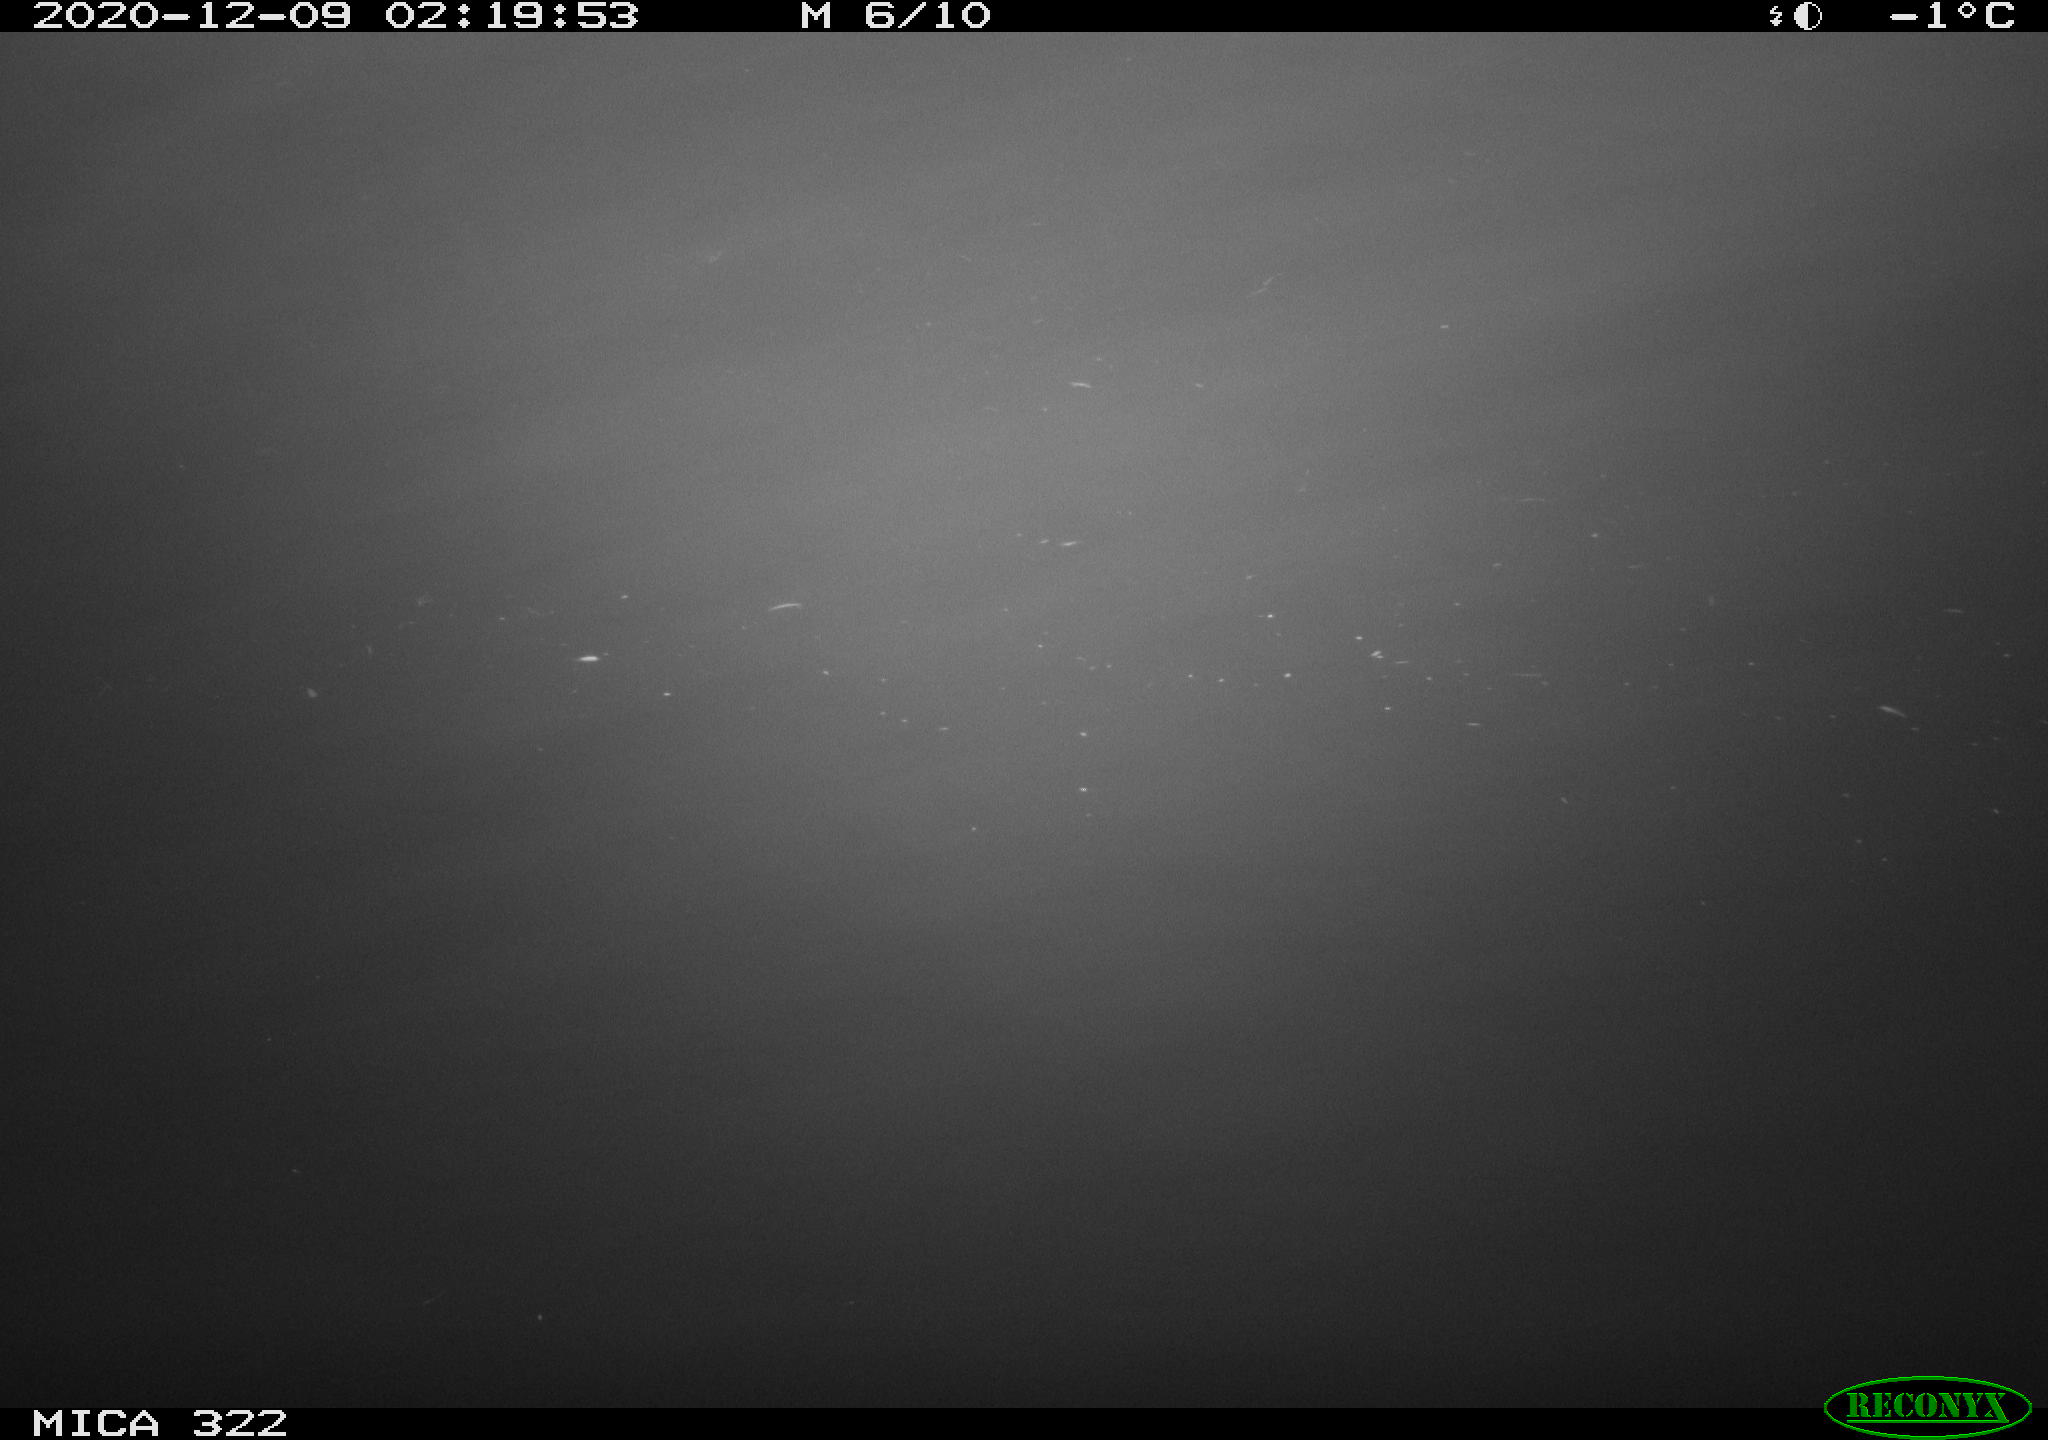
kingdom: Animalia
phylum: Chordata
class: Aves
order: Anseriformes
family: Anatidae
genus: Mareca
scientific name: Mareca strepera
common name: Gadwall
